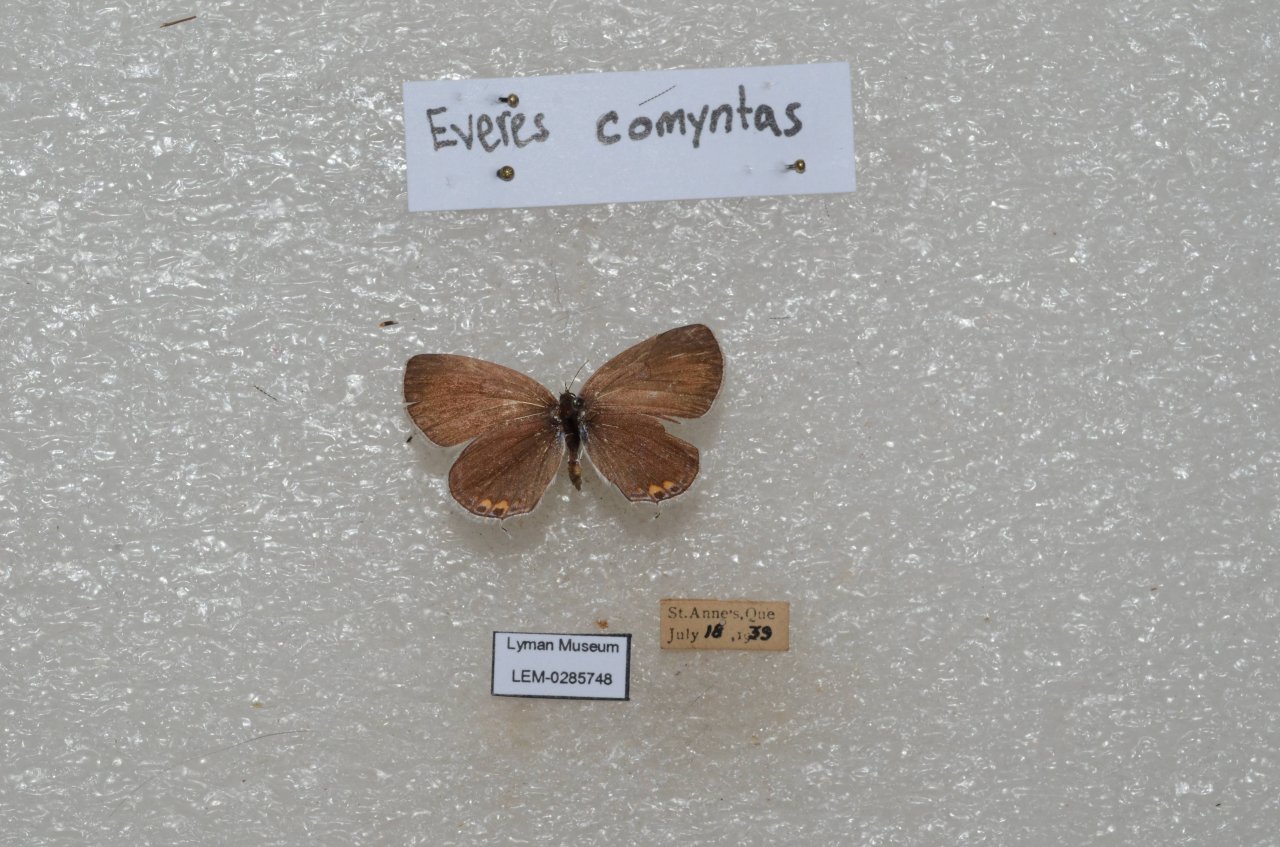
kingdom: Animalia
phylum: Arthropoda
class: Insecta
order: Lepidoptera
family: Lycaenidae
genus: Elkalyce
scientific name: Elkalyce comyntas
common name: Eastern Tailed-Blue
